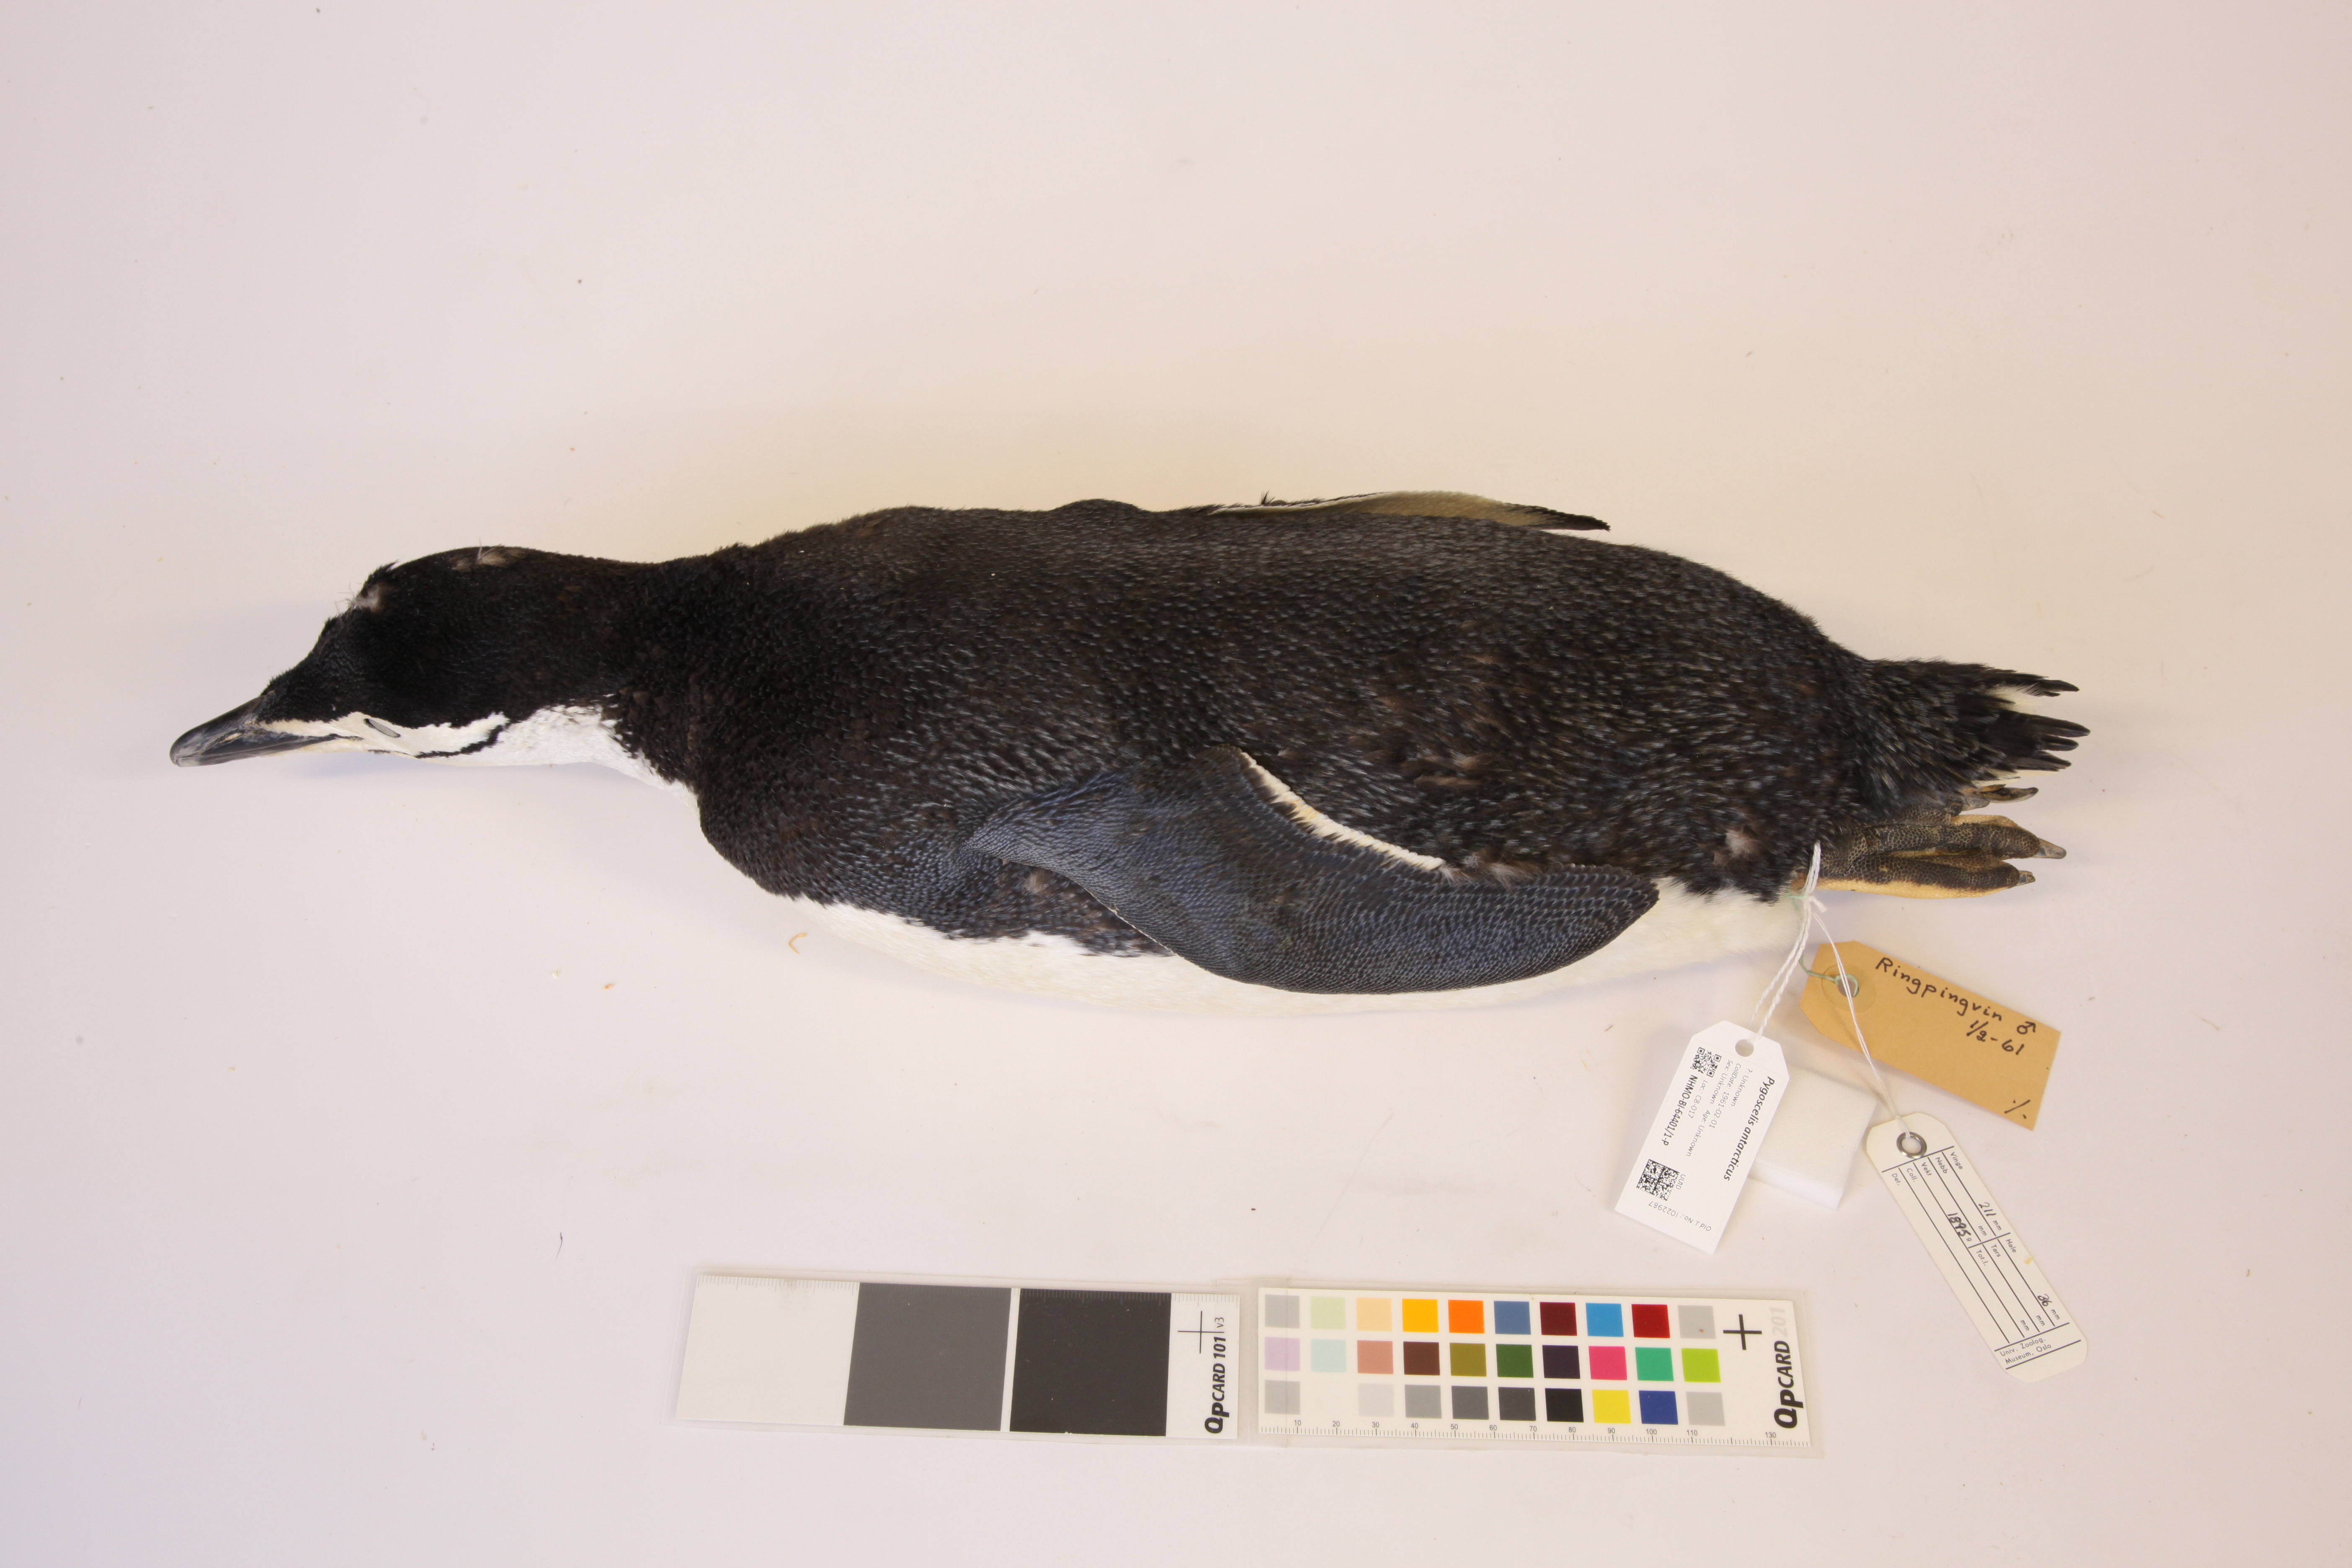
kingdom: Animalia
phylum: Chordata
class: Aves
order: Sphenisciformes
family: Spheniscidae
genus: Pygoscelis
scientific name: Pygoscelis antarcticus
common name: Chinstrap penguin
